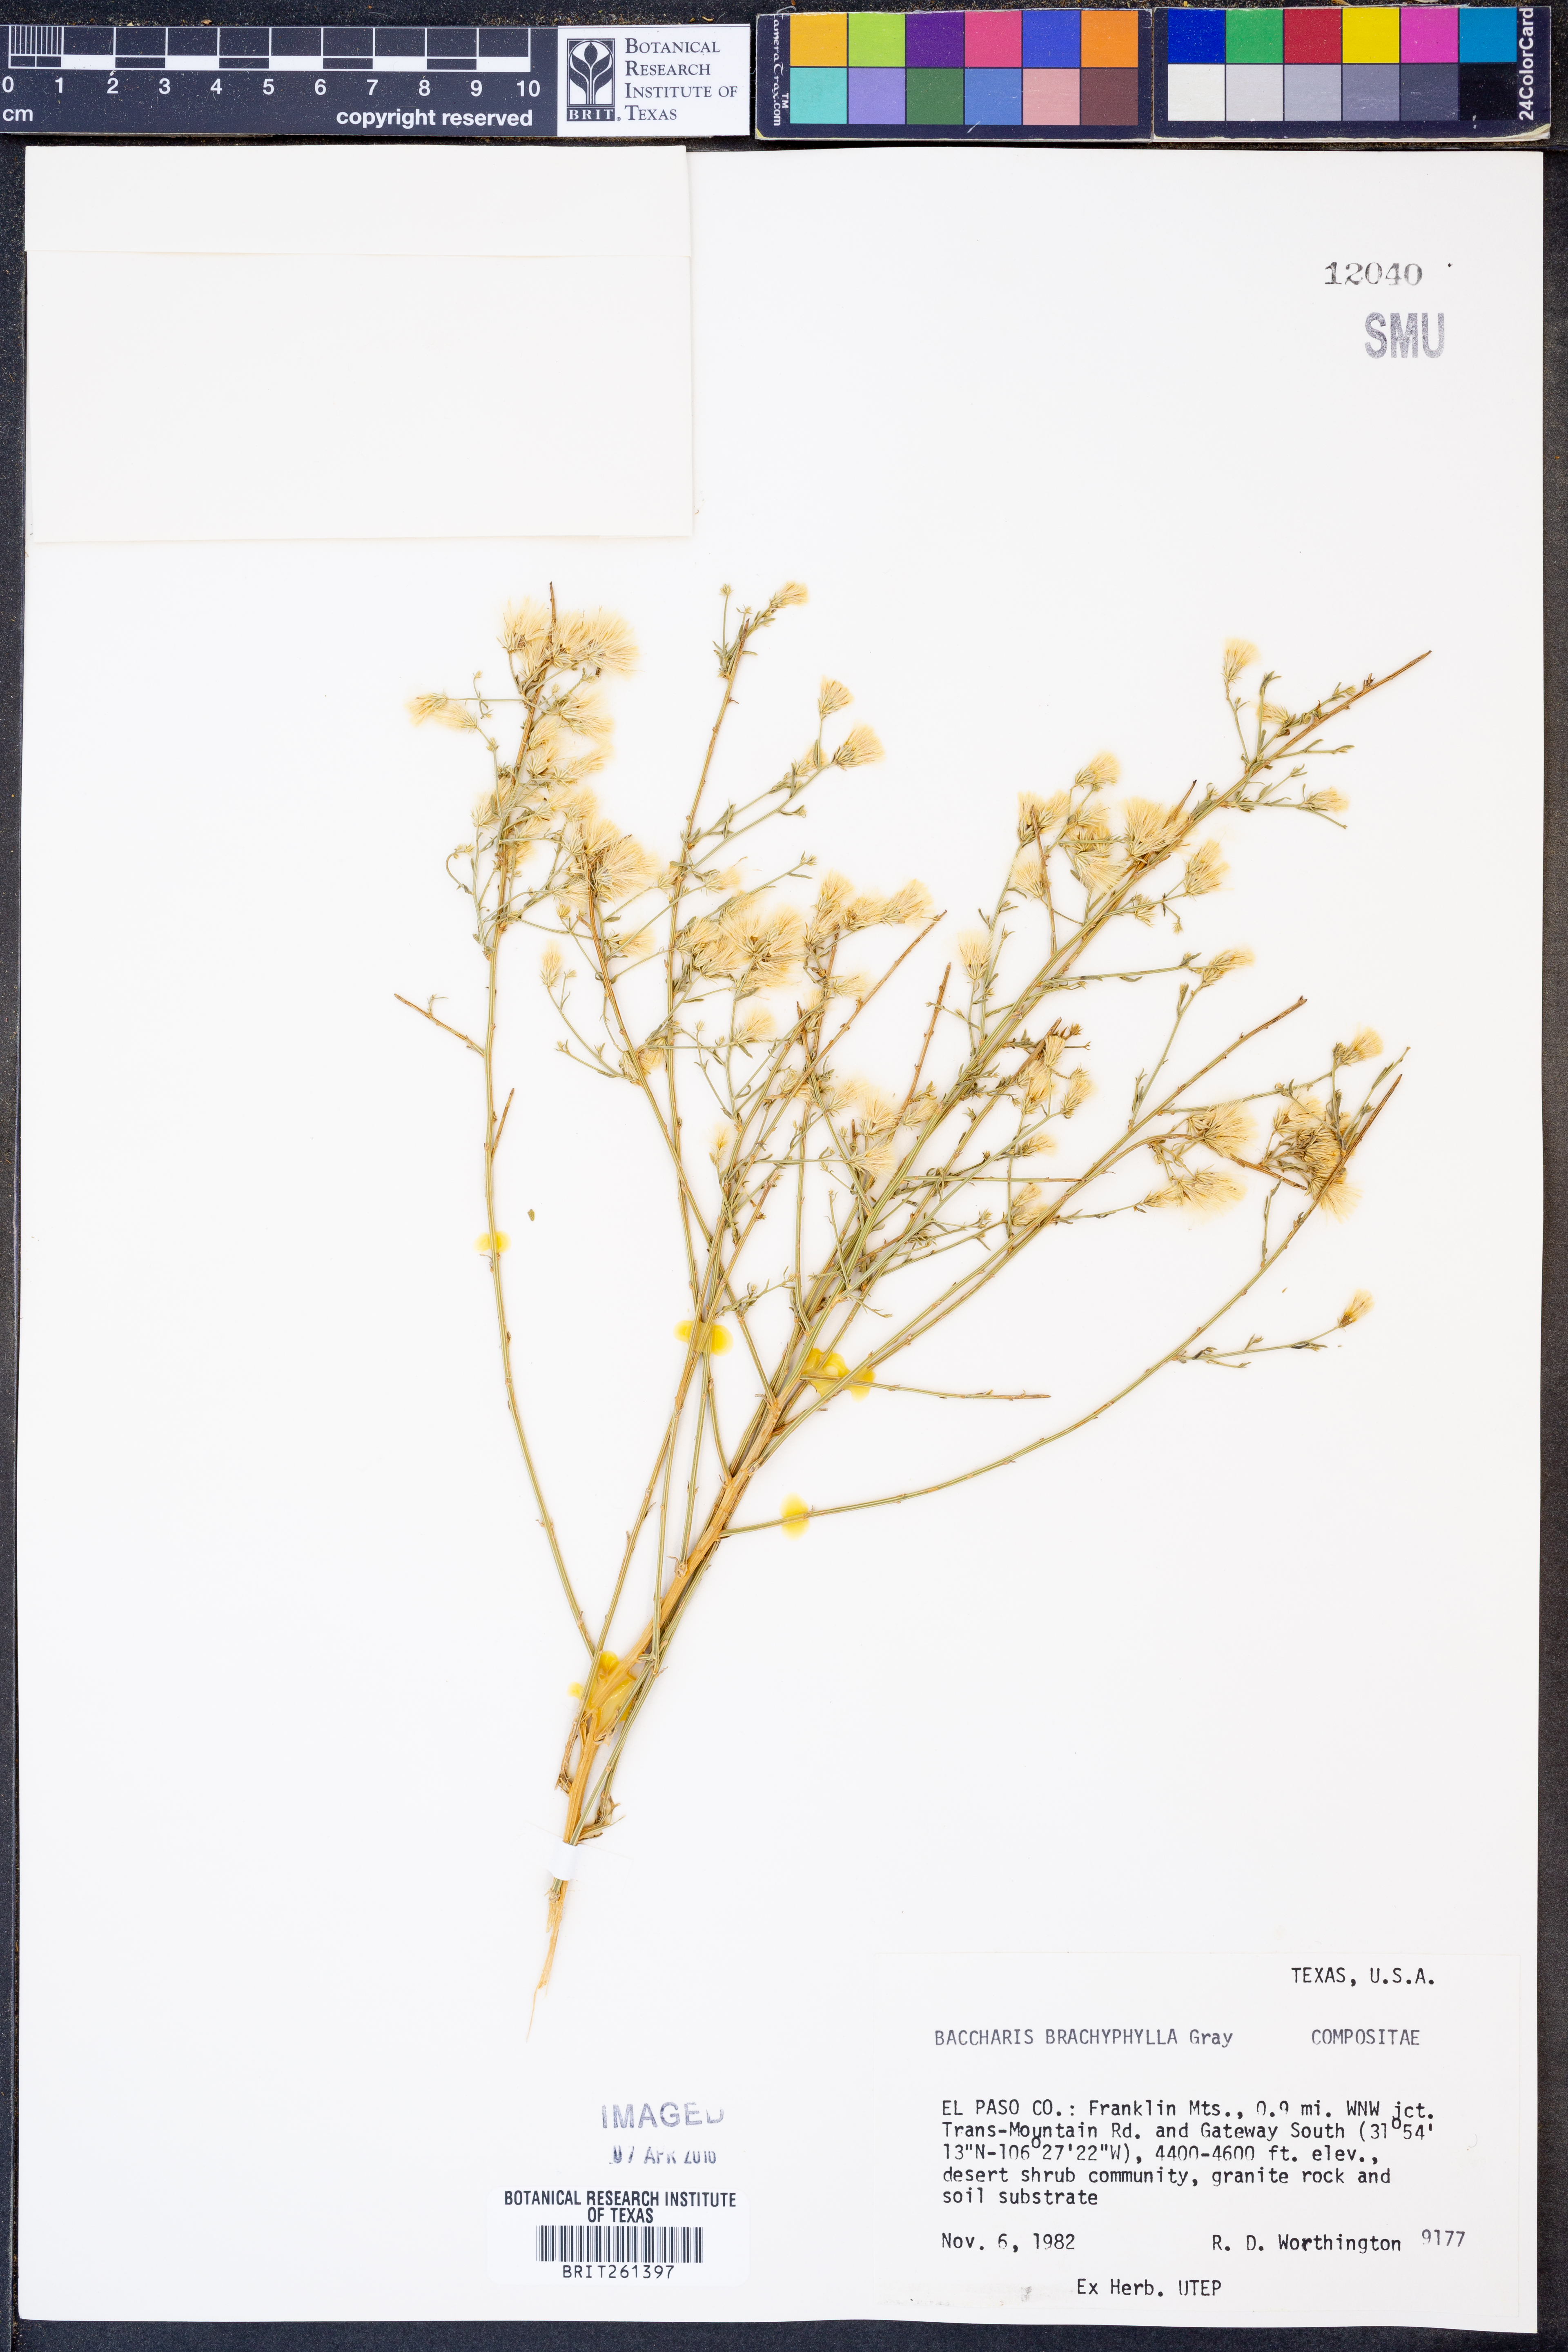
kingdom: Plantae
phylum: Tracheophyta
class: Magnoliopsida
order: Asterales
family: Asteraceae
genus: Baccharis
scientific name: Baccharis brachyphylla
